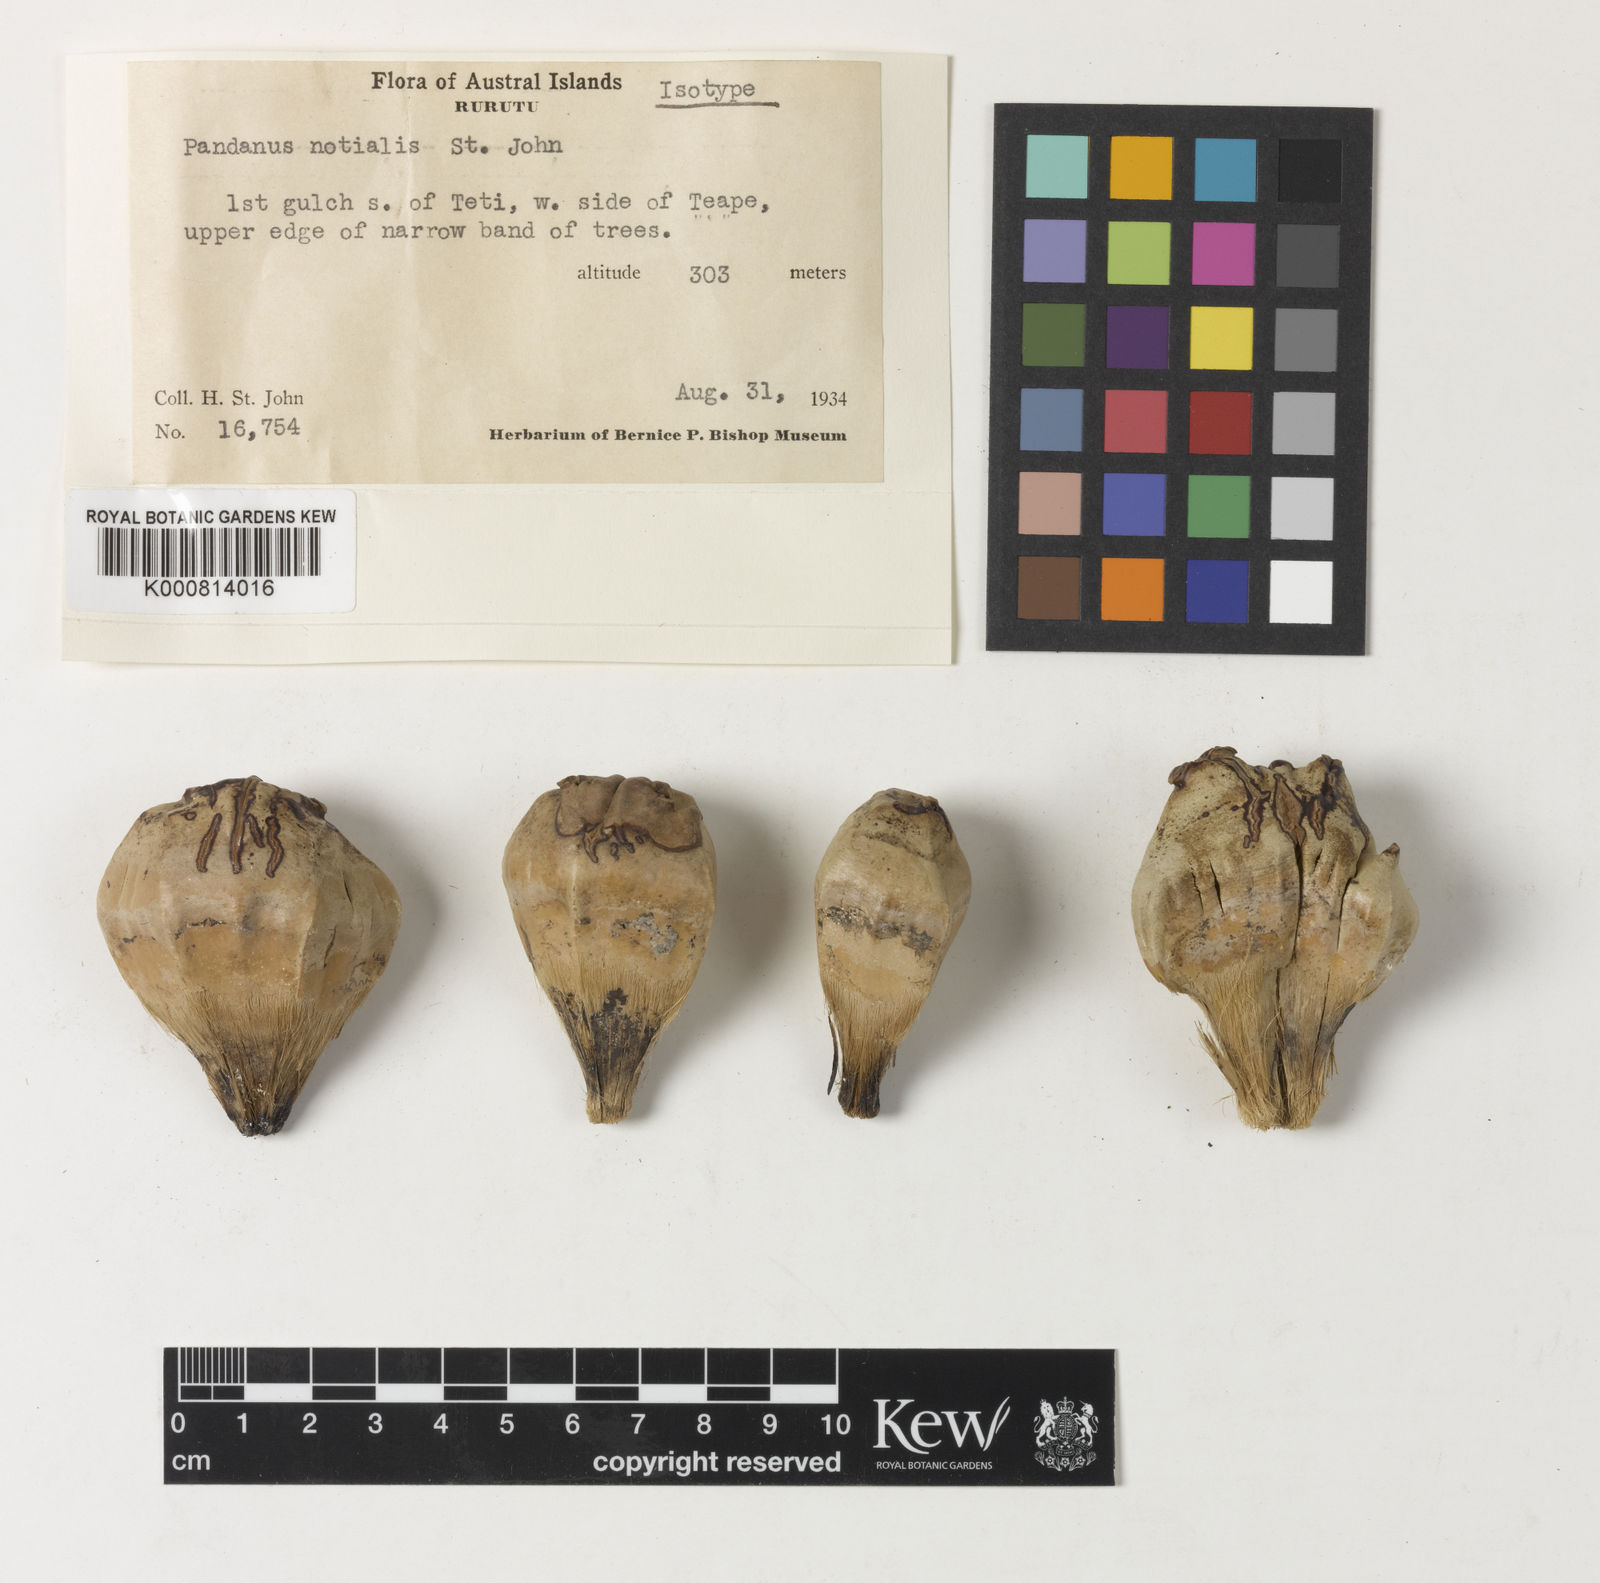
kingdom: Plantae
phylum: Tracheophyta
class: Liliopsida
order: Pandanales
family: Pandanaceae
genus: Pandanus
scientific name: Pandanus tectorius
